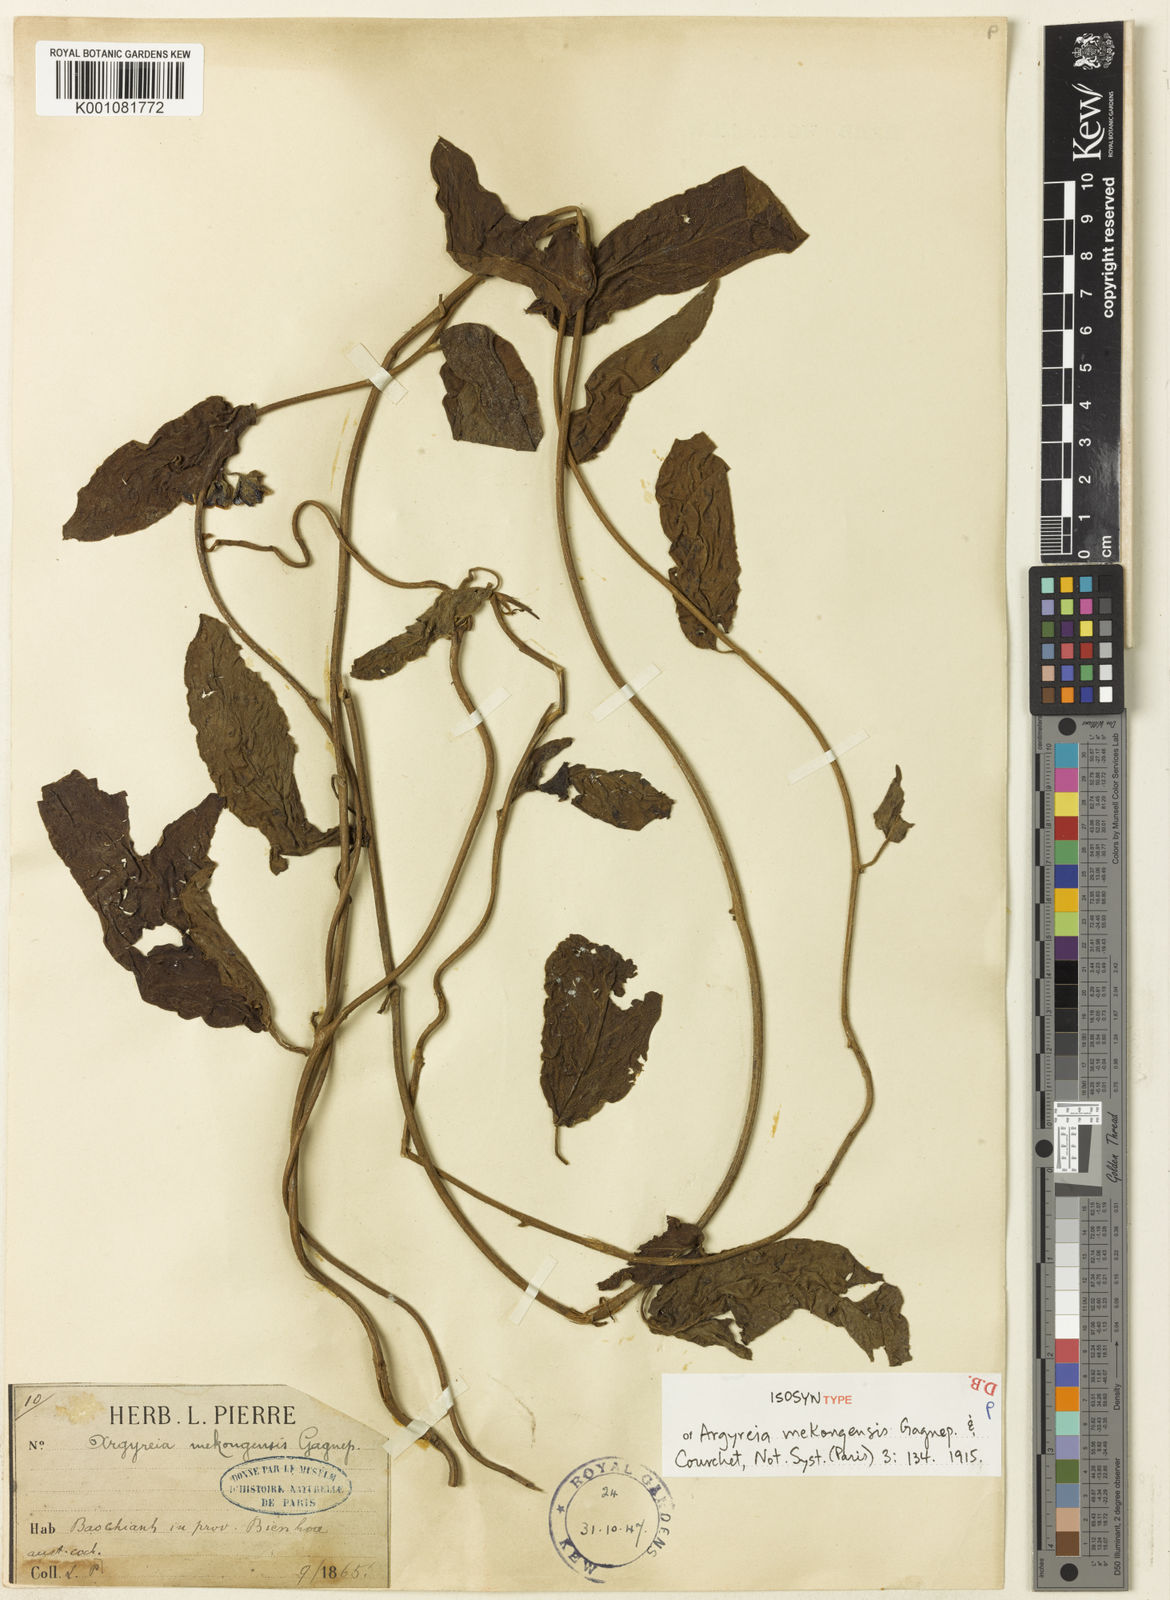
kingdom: Plantae
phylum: Tracheophyta
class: Magnoliopsida
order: Solanales
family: Convolvulaceae
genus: Argyreia
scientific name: Argyreia mekongensis
